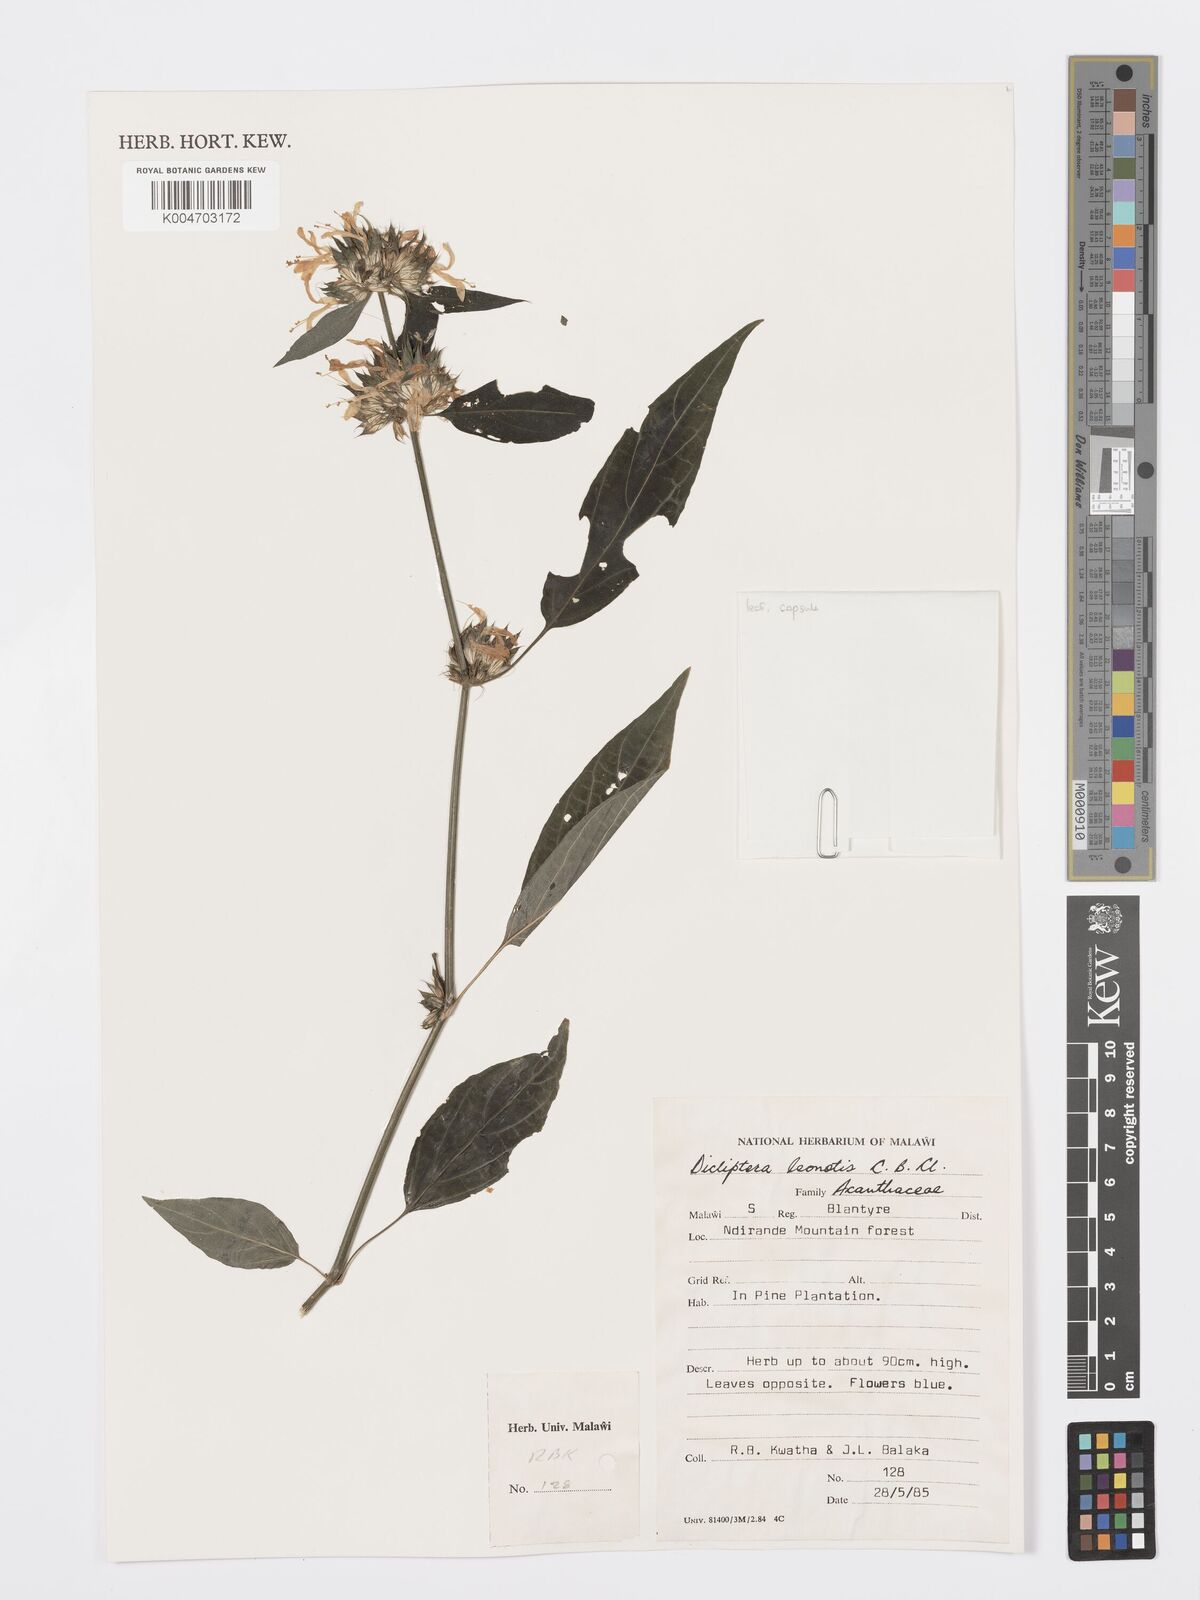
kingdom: Plantae
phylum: Tracheophyta
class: Magnoliopsida
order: Lamiales
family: Acanthaceae
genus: Dicliptera
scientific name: Dicliptera clinopodia
